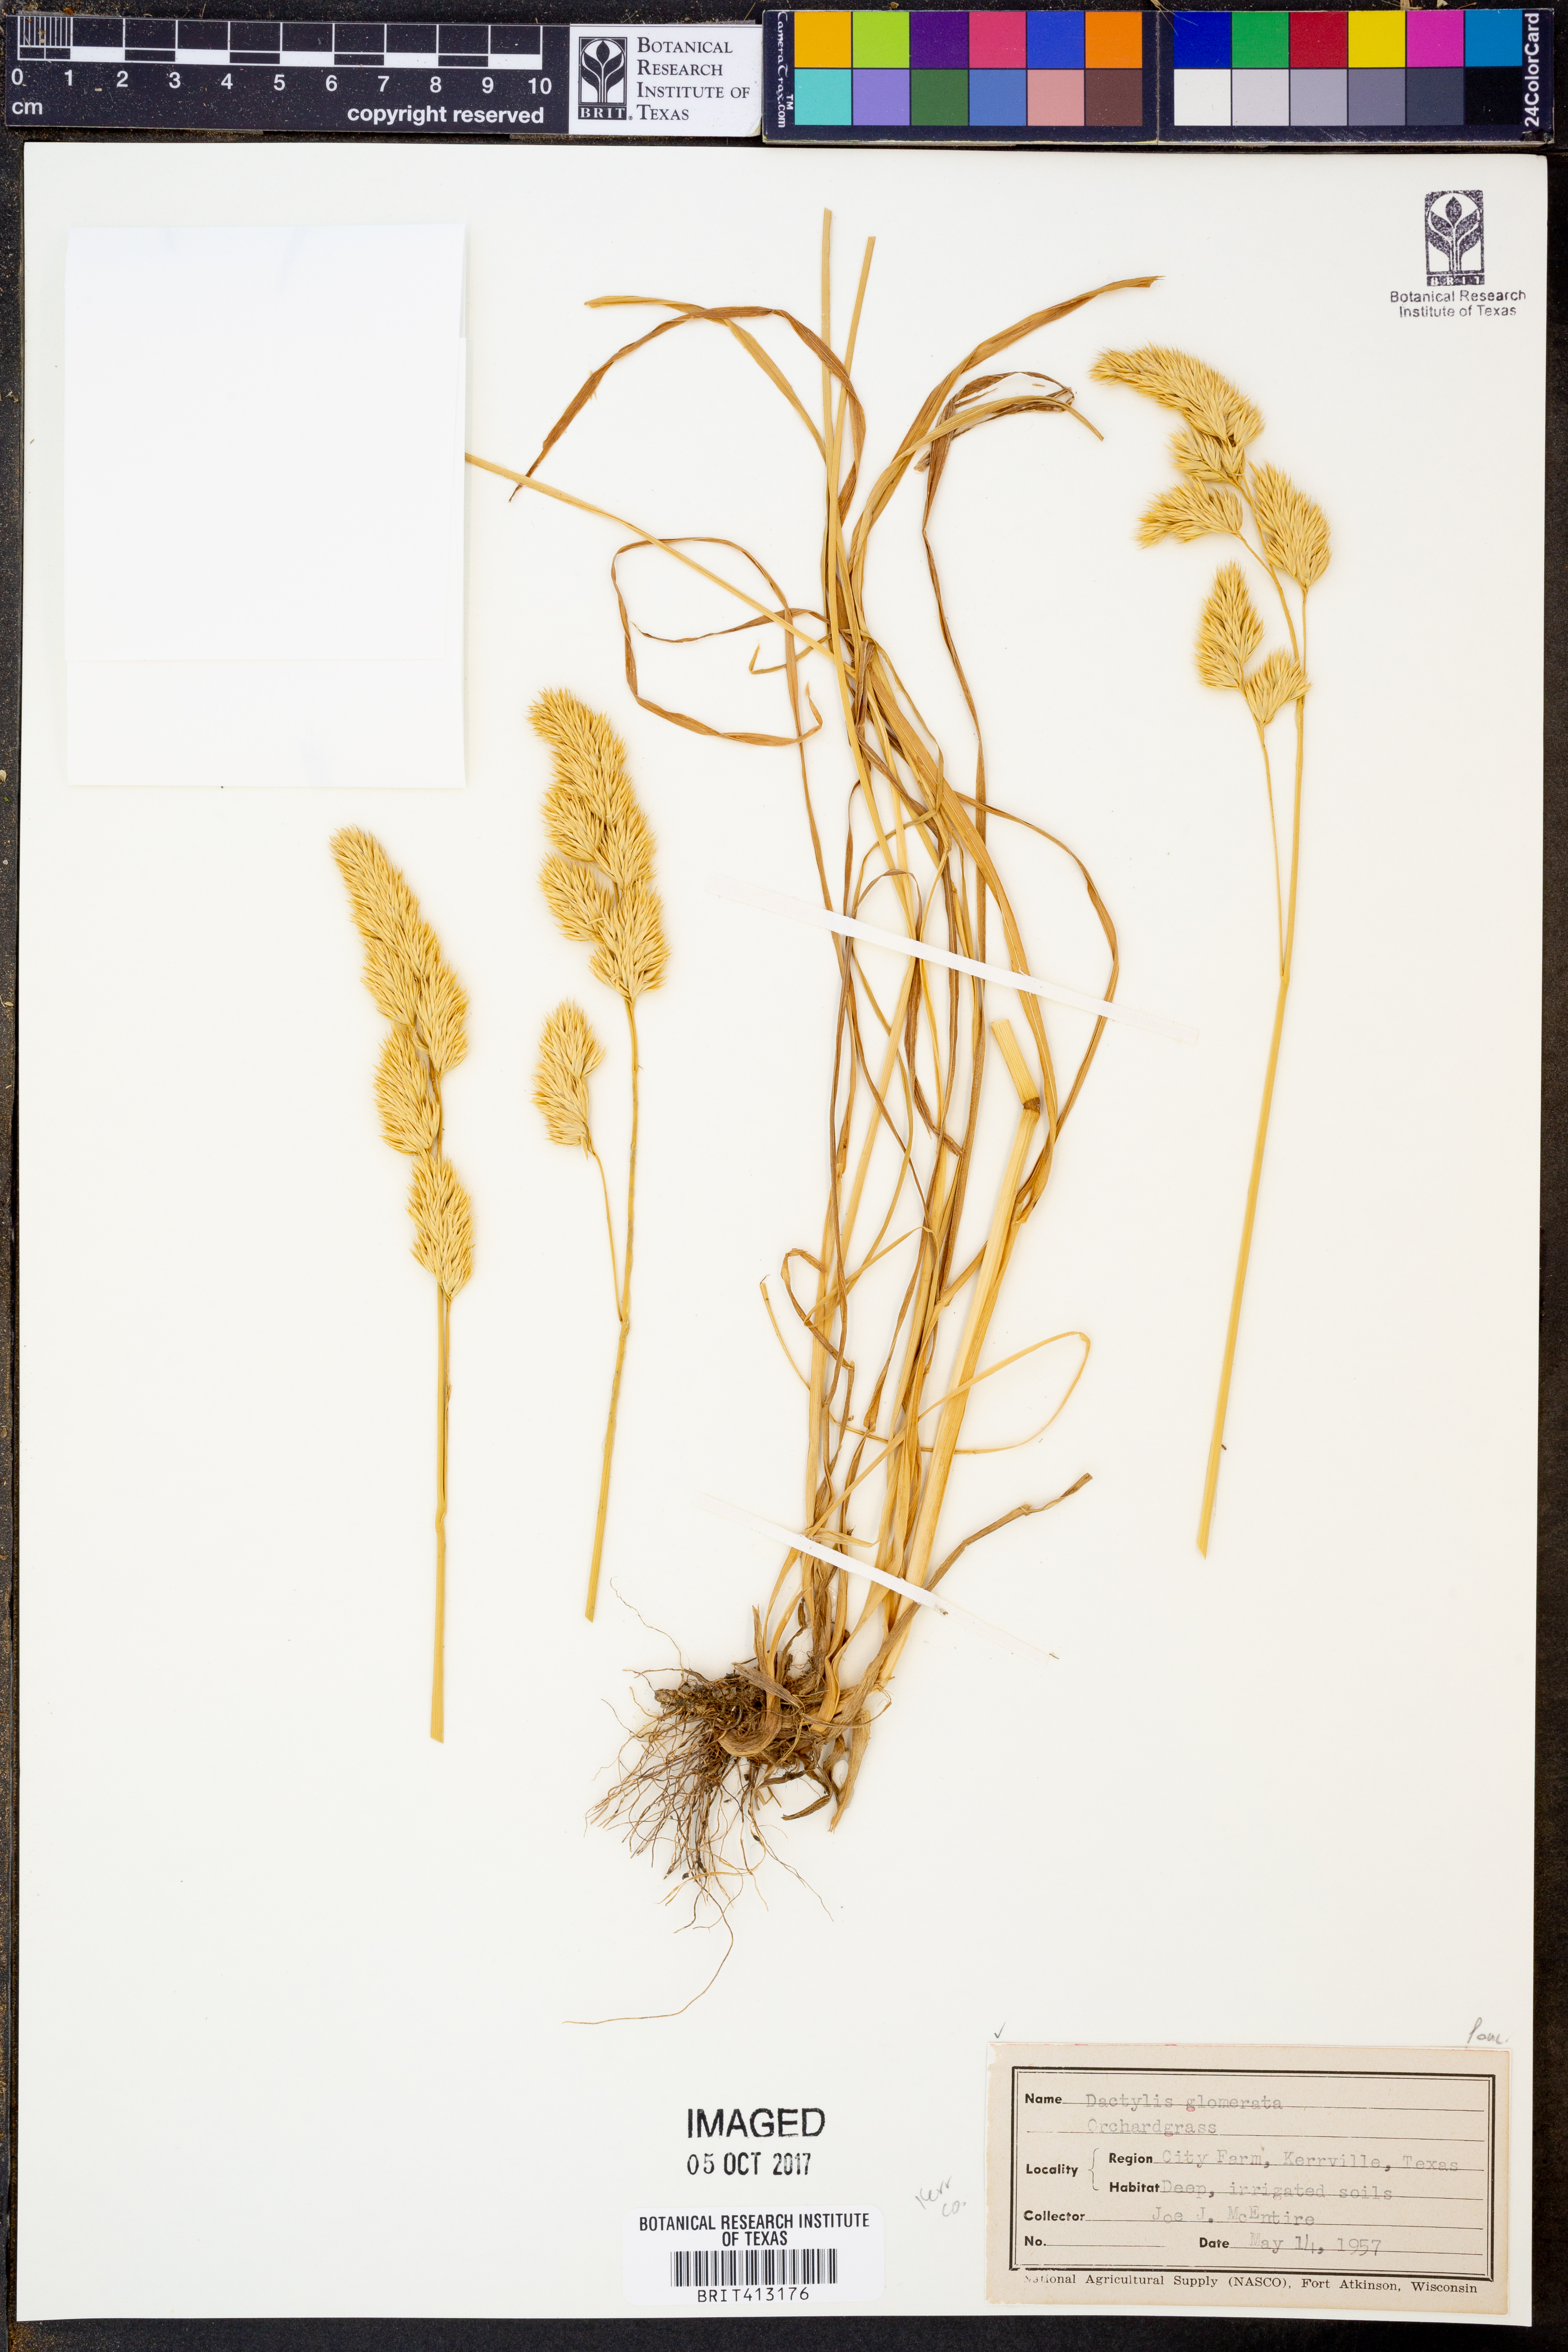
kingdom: Plantae
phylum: Tracheophyta
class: Liliopsida
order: Poales
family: Poaceae
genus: Dactylis
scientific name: Dactylis glomerata
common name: Orchardgrass
